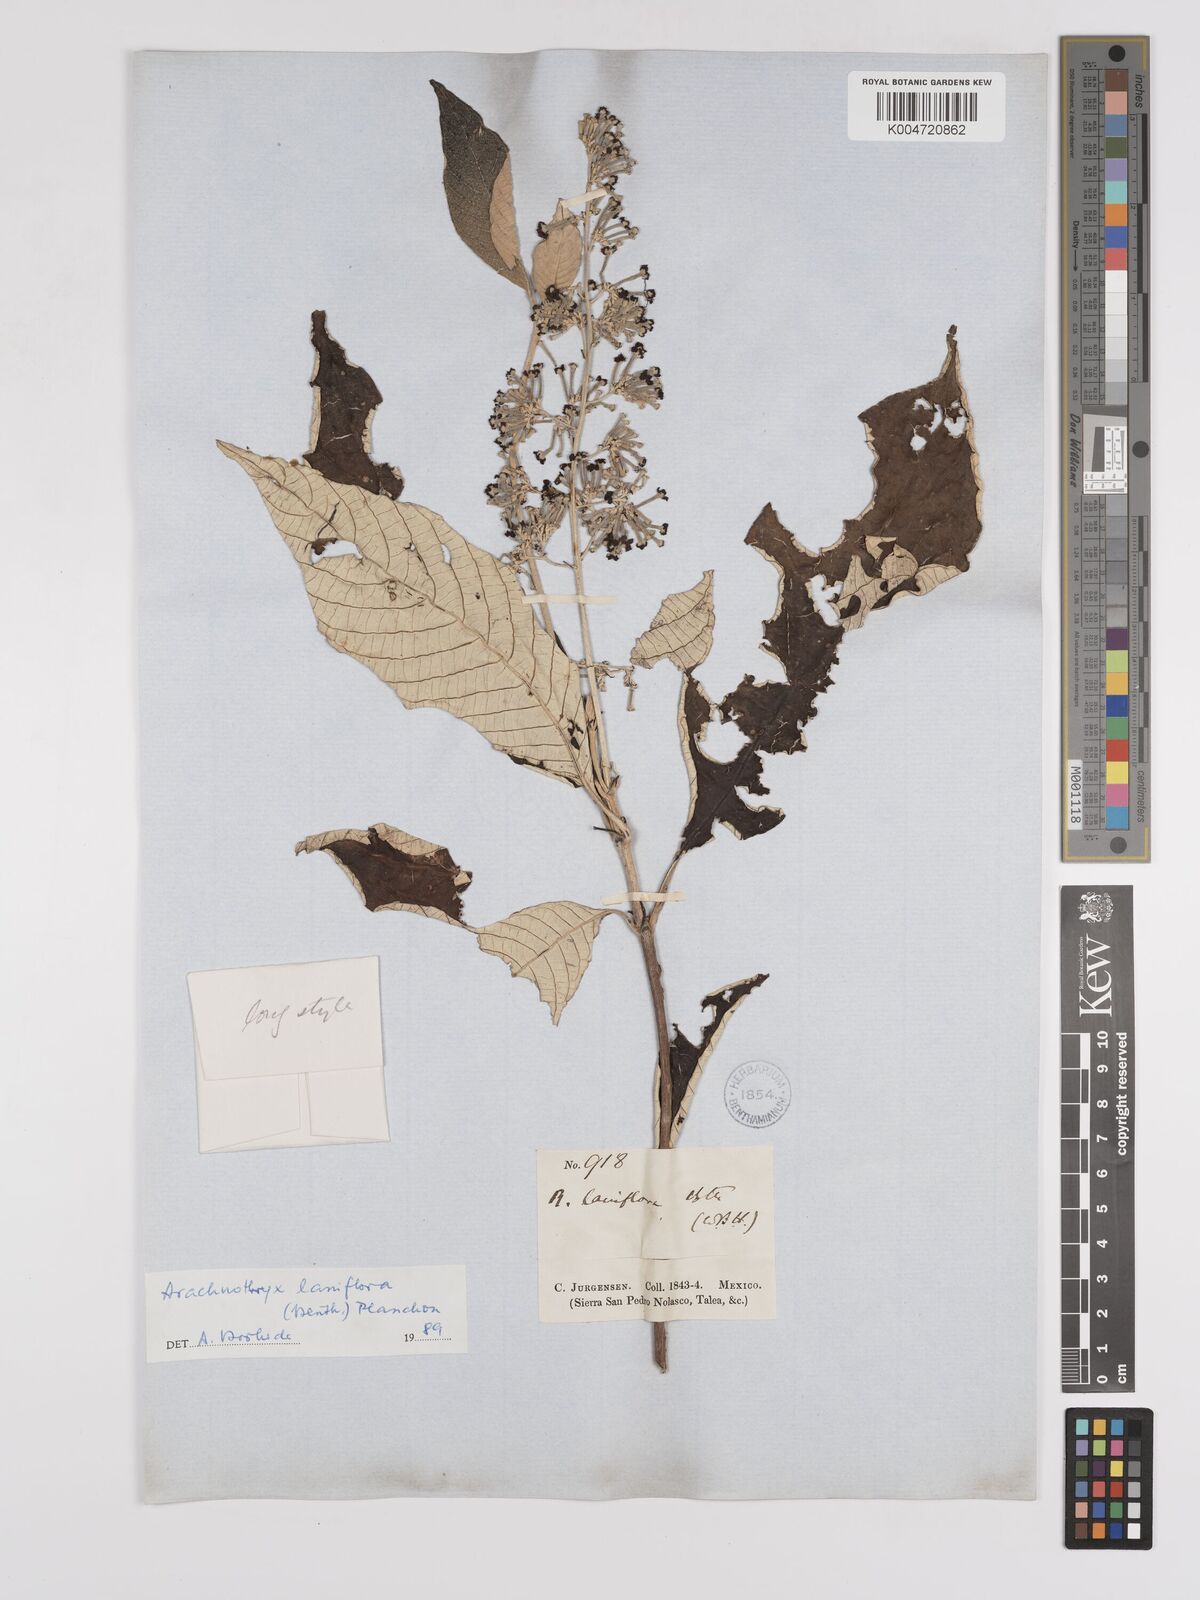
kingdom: Plantae
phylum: Tracheophyta
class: Magnoliopsida
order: Gentianales
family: Rubiaceae
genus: Arachnothryx
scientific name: Arachnothryx laniflora
